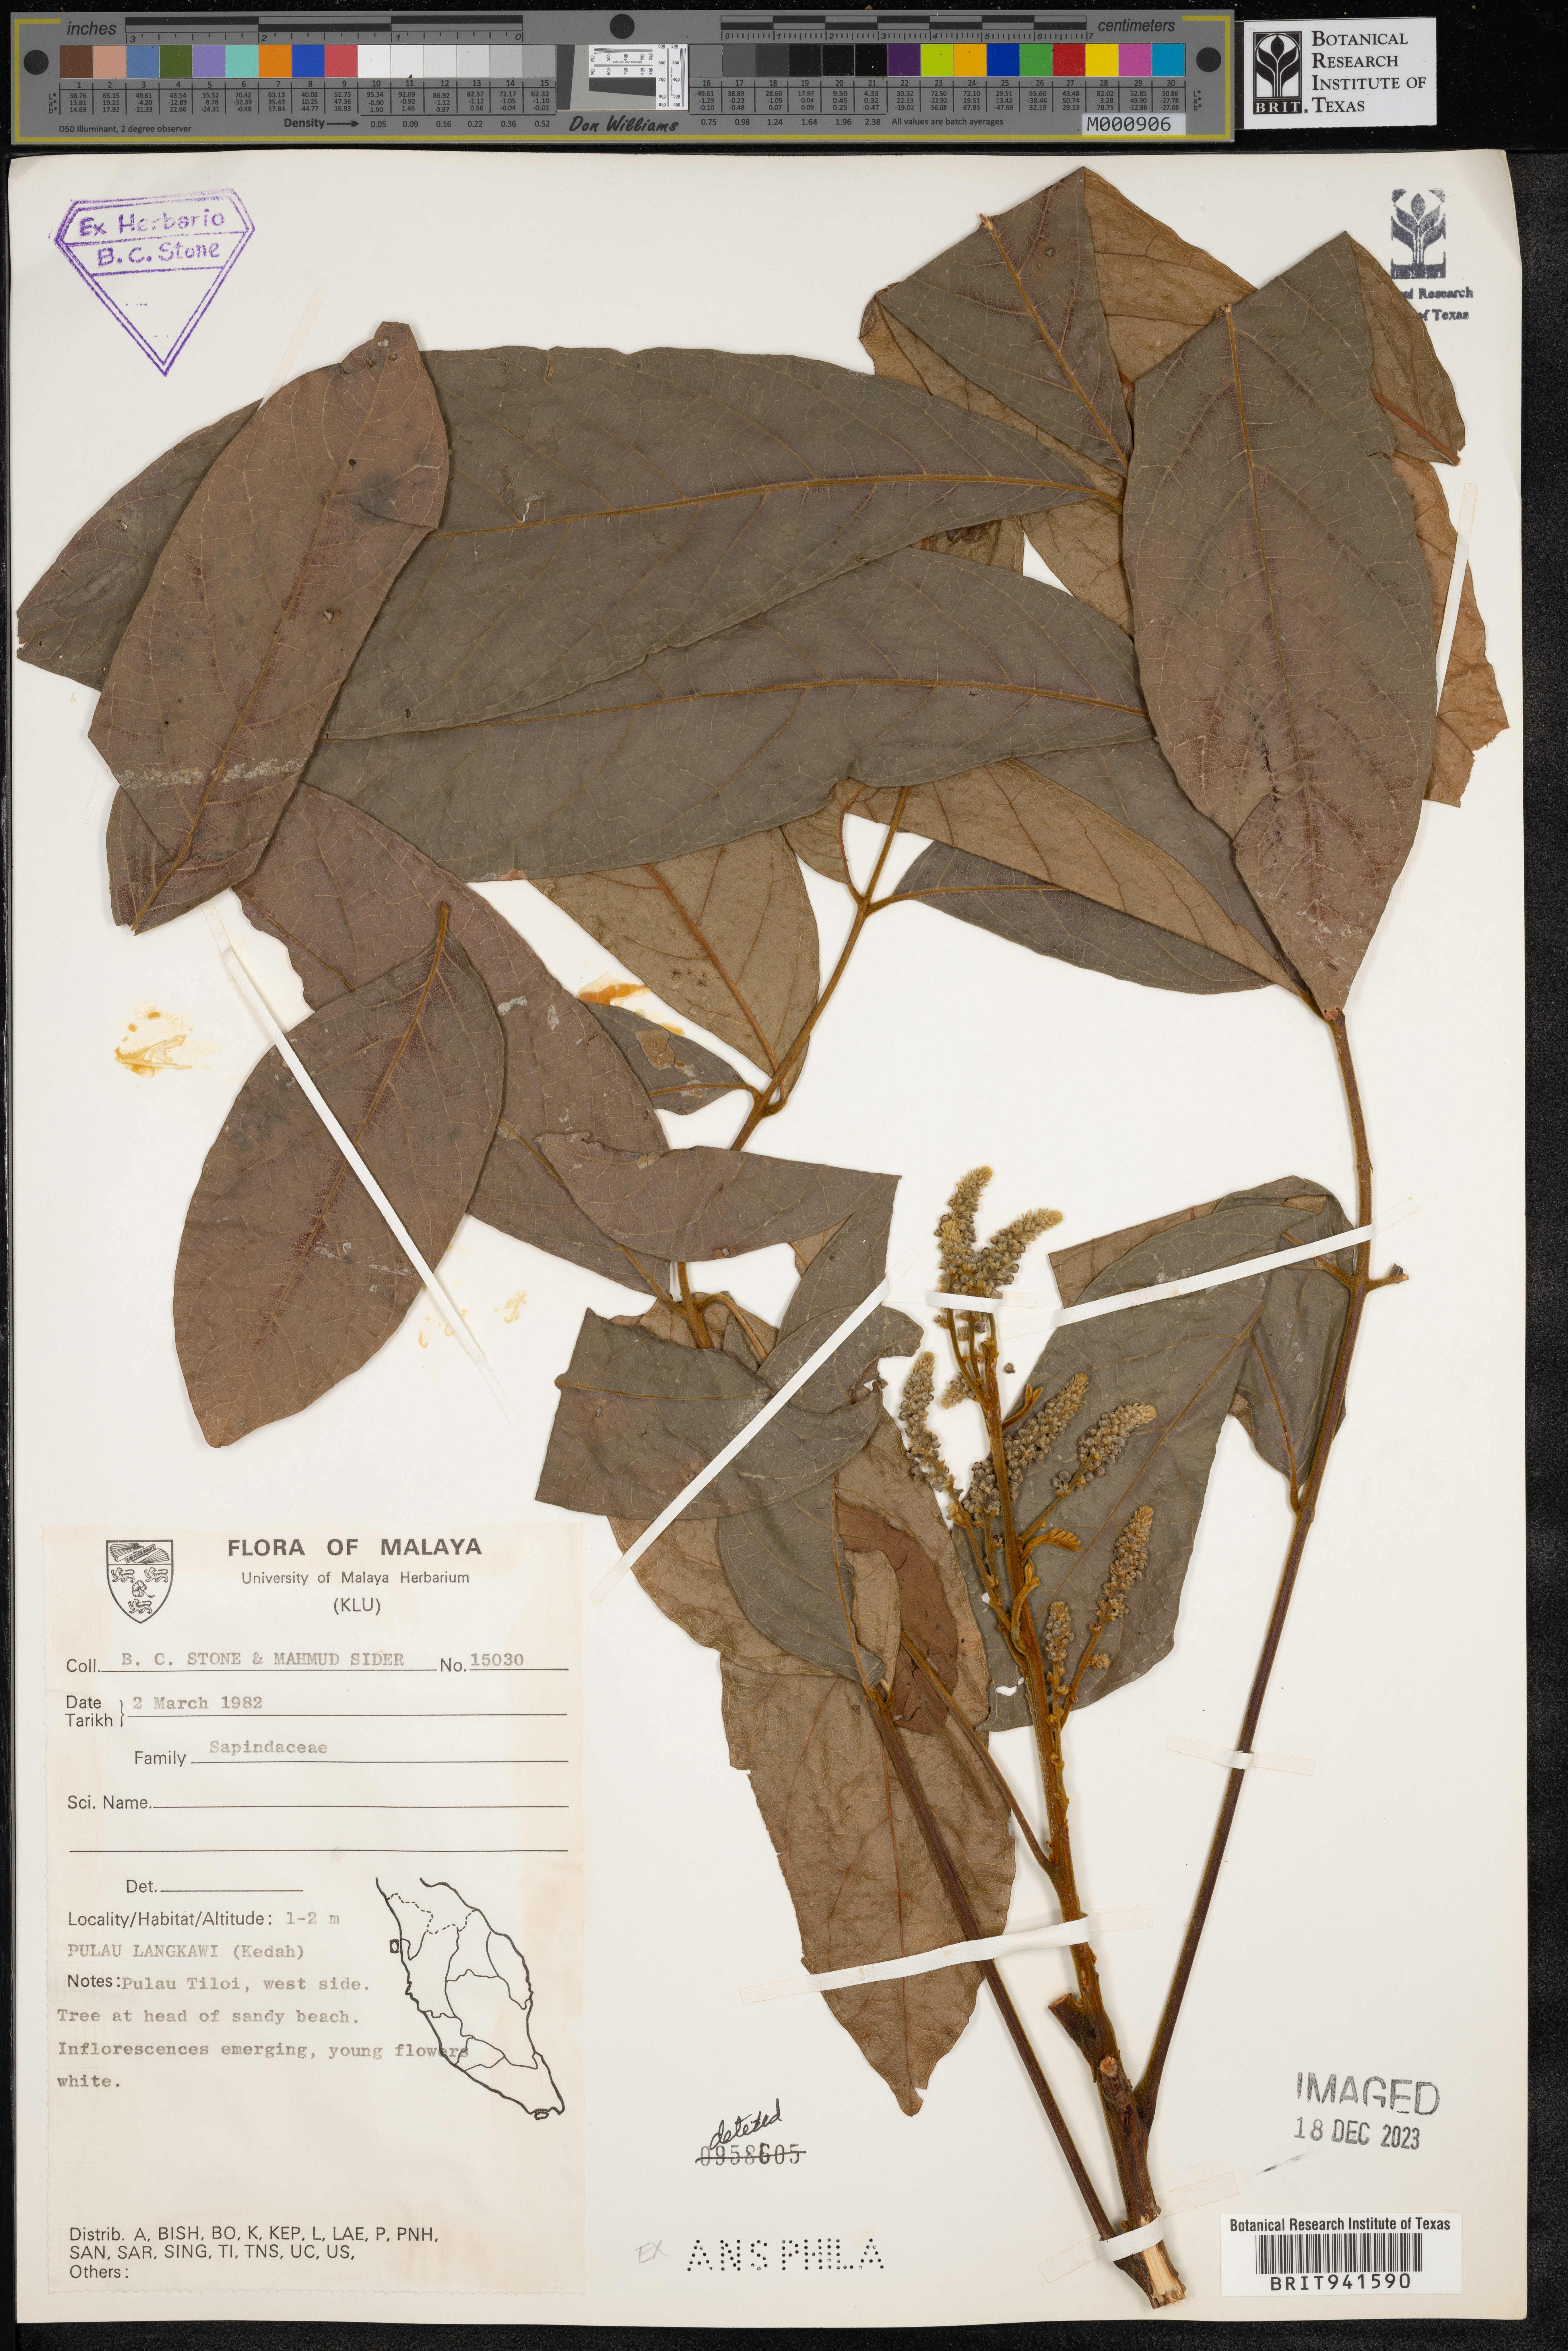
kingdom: Plantae
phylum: Tracheophyta
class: Magnoliopsida
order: Sapindales
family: Sapindaceae
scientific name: Sapindaceae
